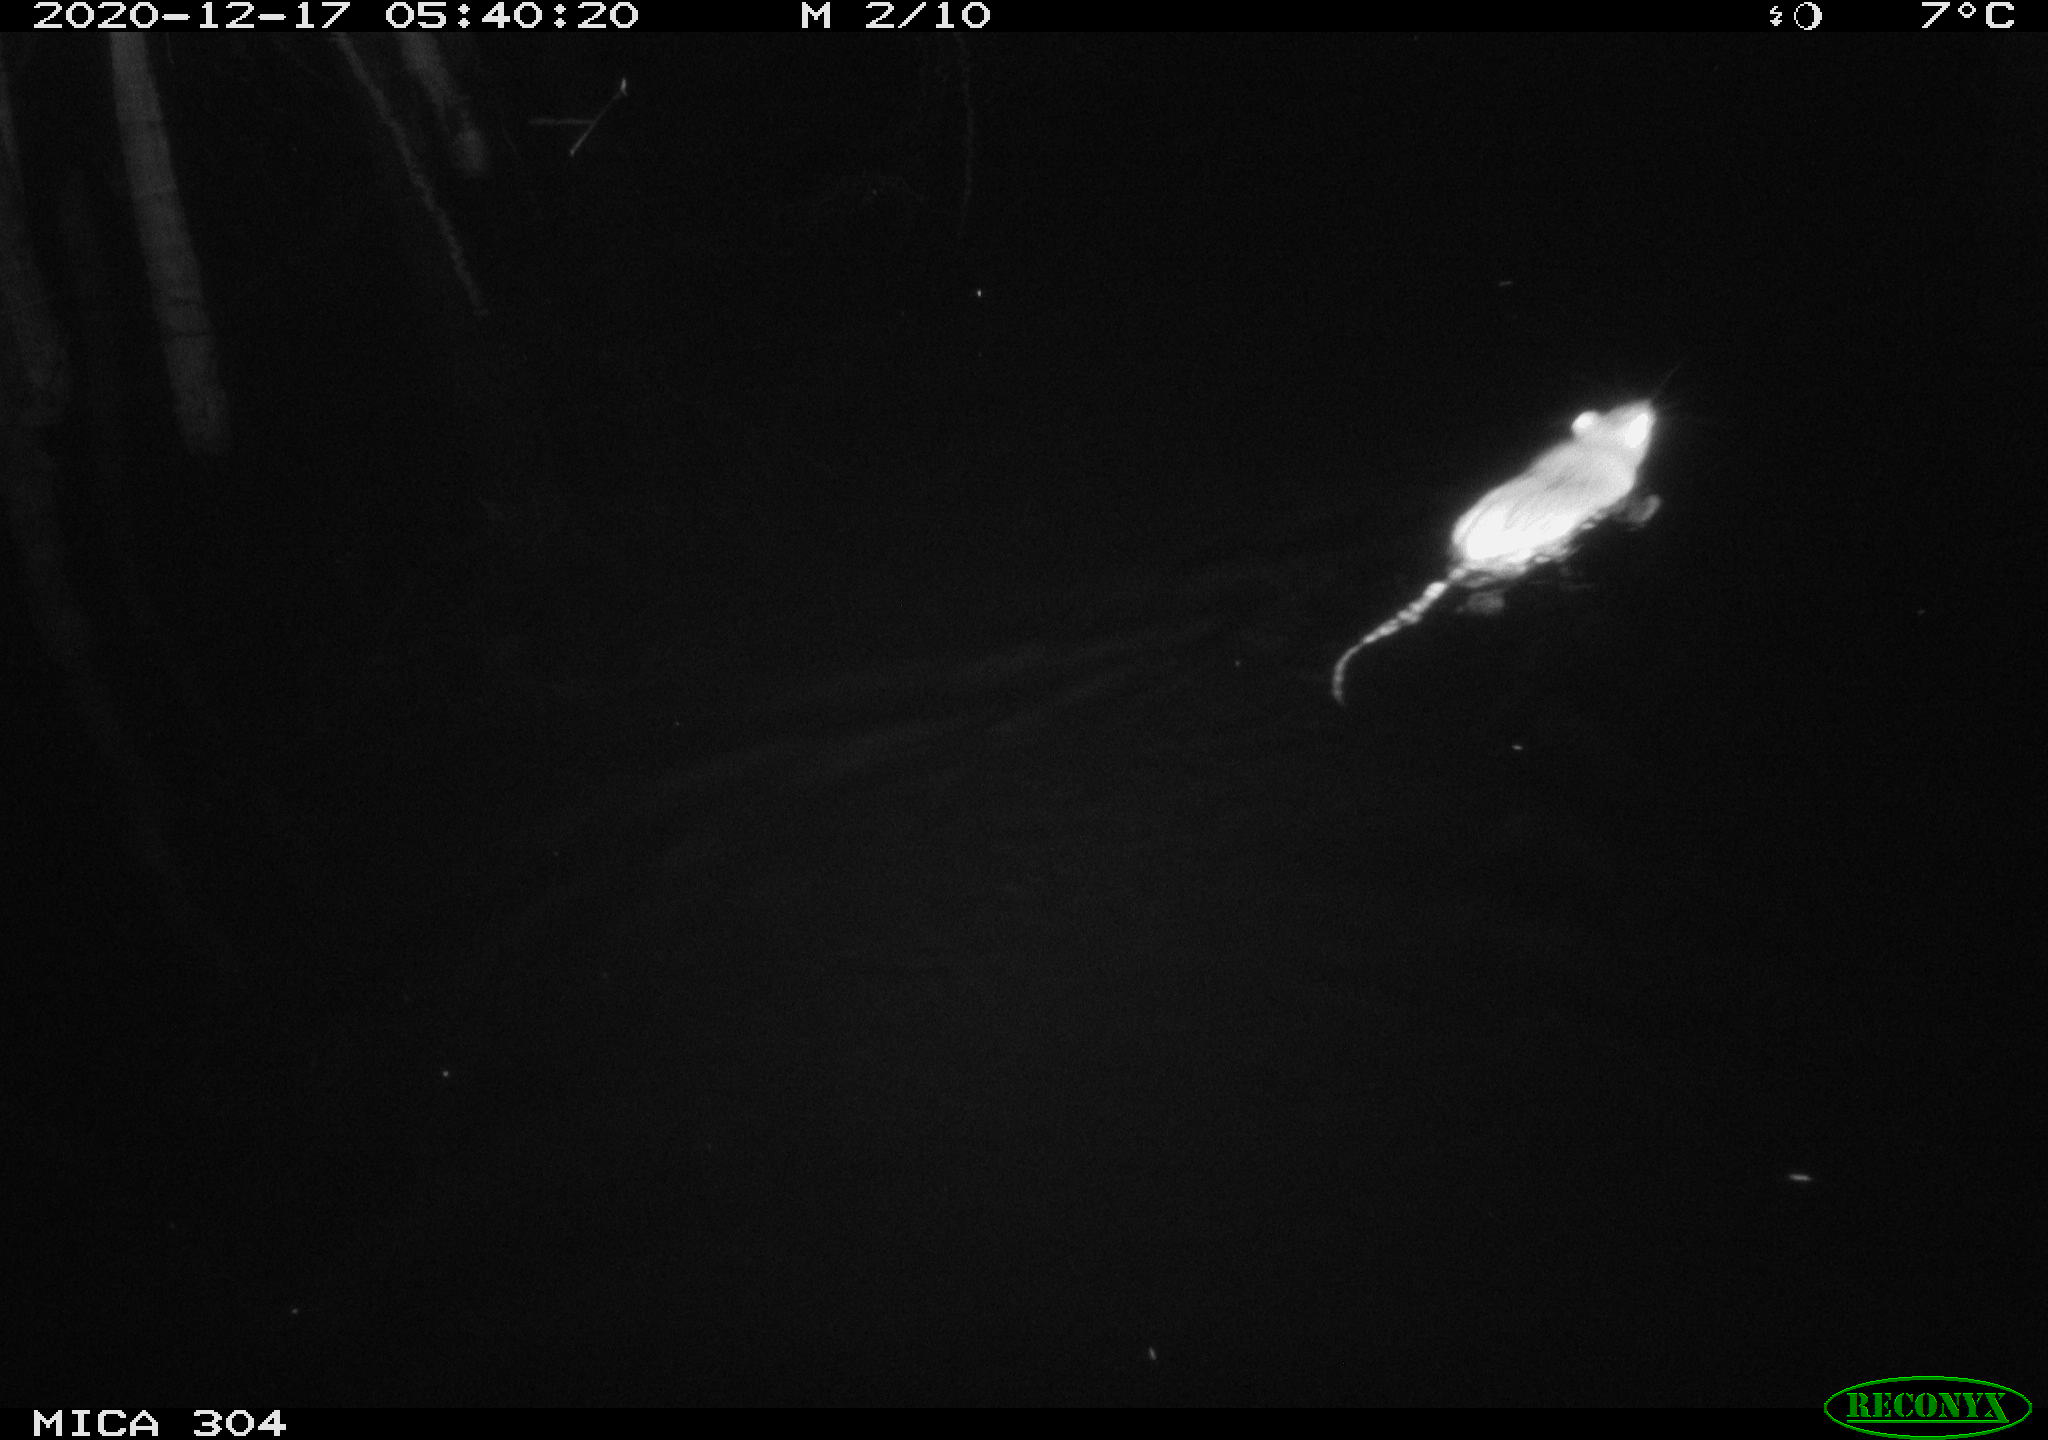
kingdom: Animalia
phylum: Chordata
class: Mammalia
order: Rodentia
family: Muridae
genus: Rattus
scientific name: Rattus norvegicus
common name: Brown rat
